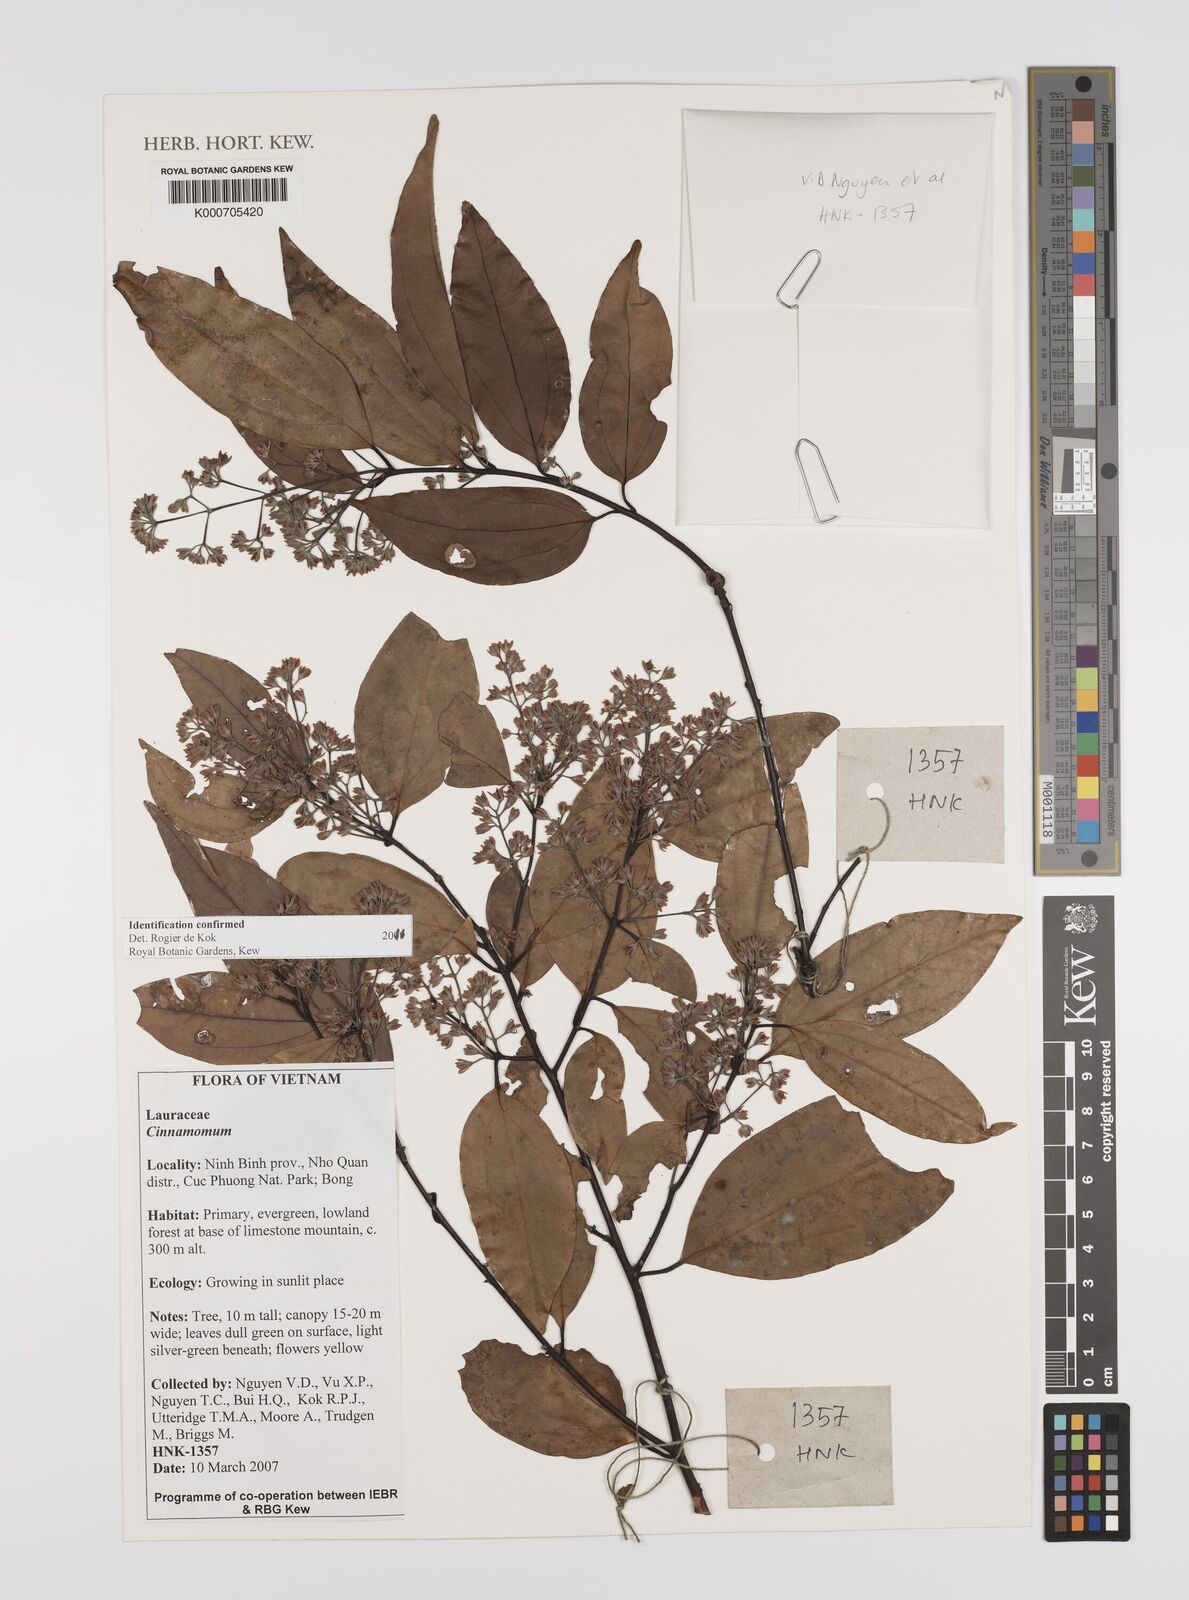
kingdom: Plantae
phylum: Tracheophyta
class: Magnoliopsida
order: Laurales
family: Lauraceae
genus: Cinnamomum
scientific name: Cinnamomum
